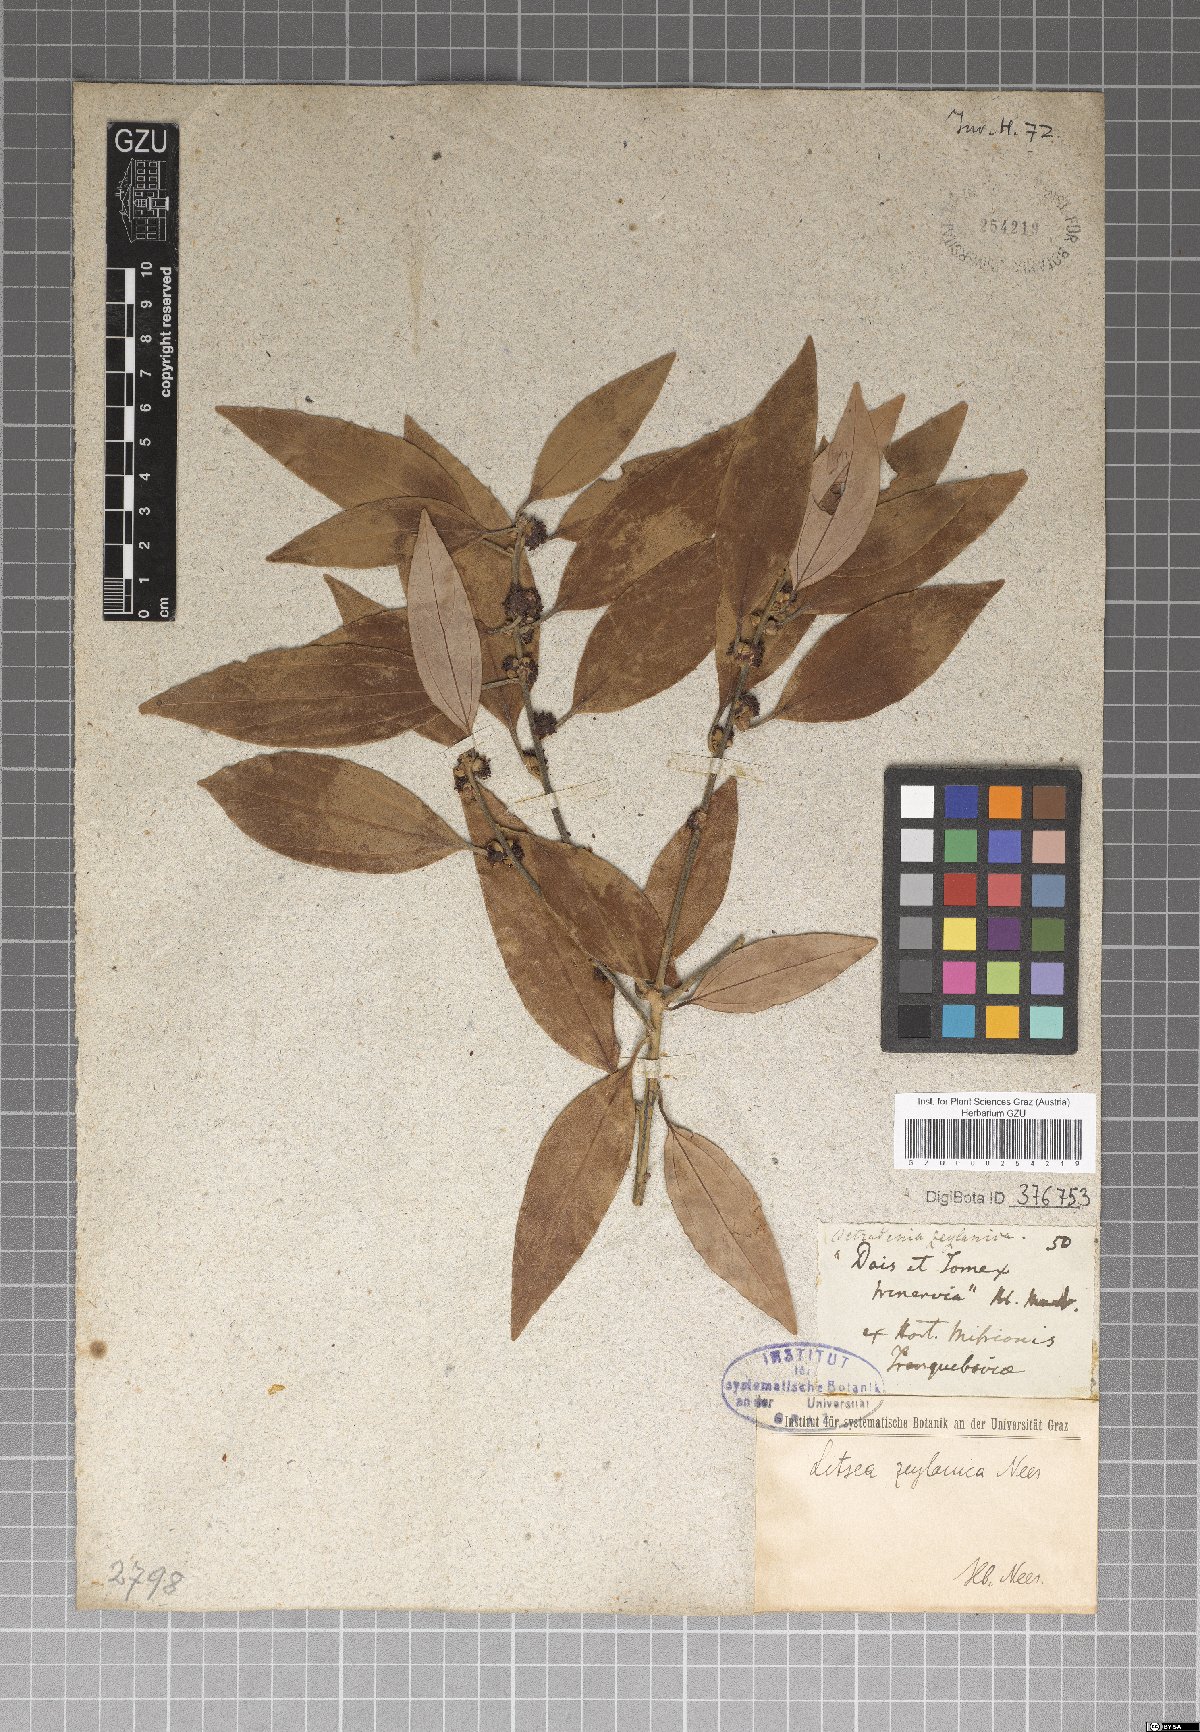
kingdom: Plantae
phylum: Tracheophyta
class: Magnoliopsida
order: Laurales
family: Lauraceae
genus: Neolitsea
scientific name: Neolitsea cassia
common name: Laurel
